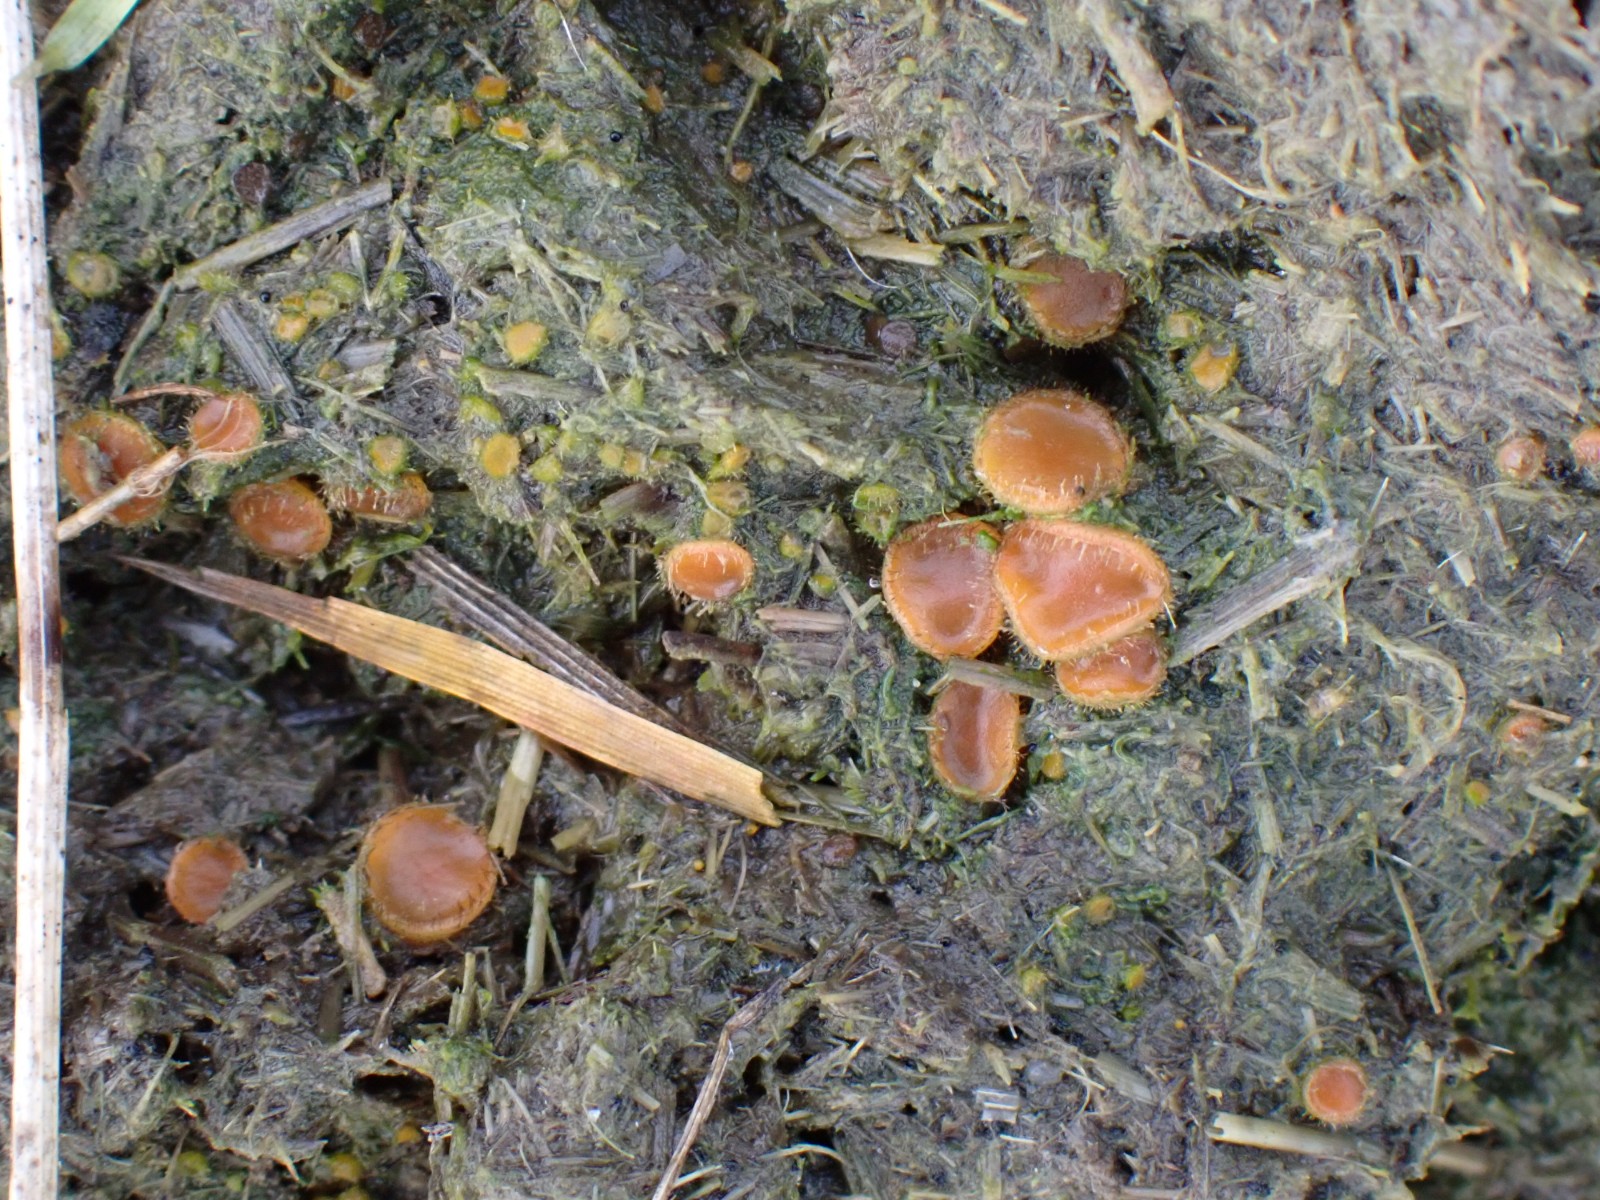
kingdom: Fungi
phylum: Ascomycota
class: Pezizomycetes
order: Pezizales
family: Pyronemataceae
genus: Cheilymenia
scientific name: Cheilymenia fimicola
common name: møg-hårbæger
